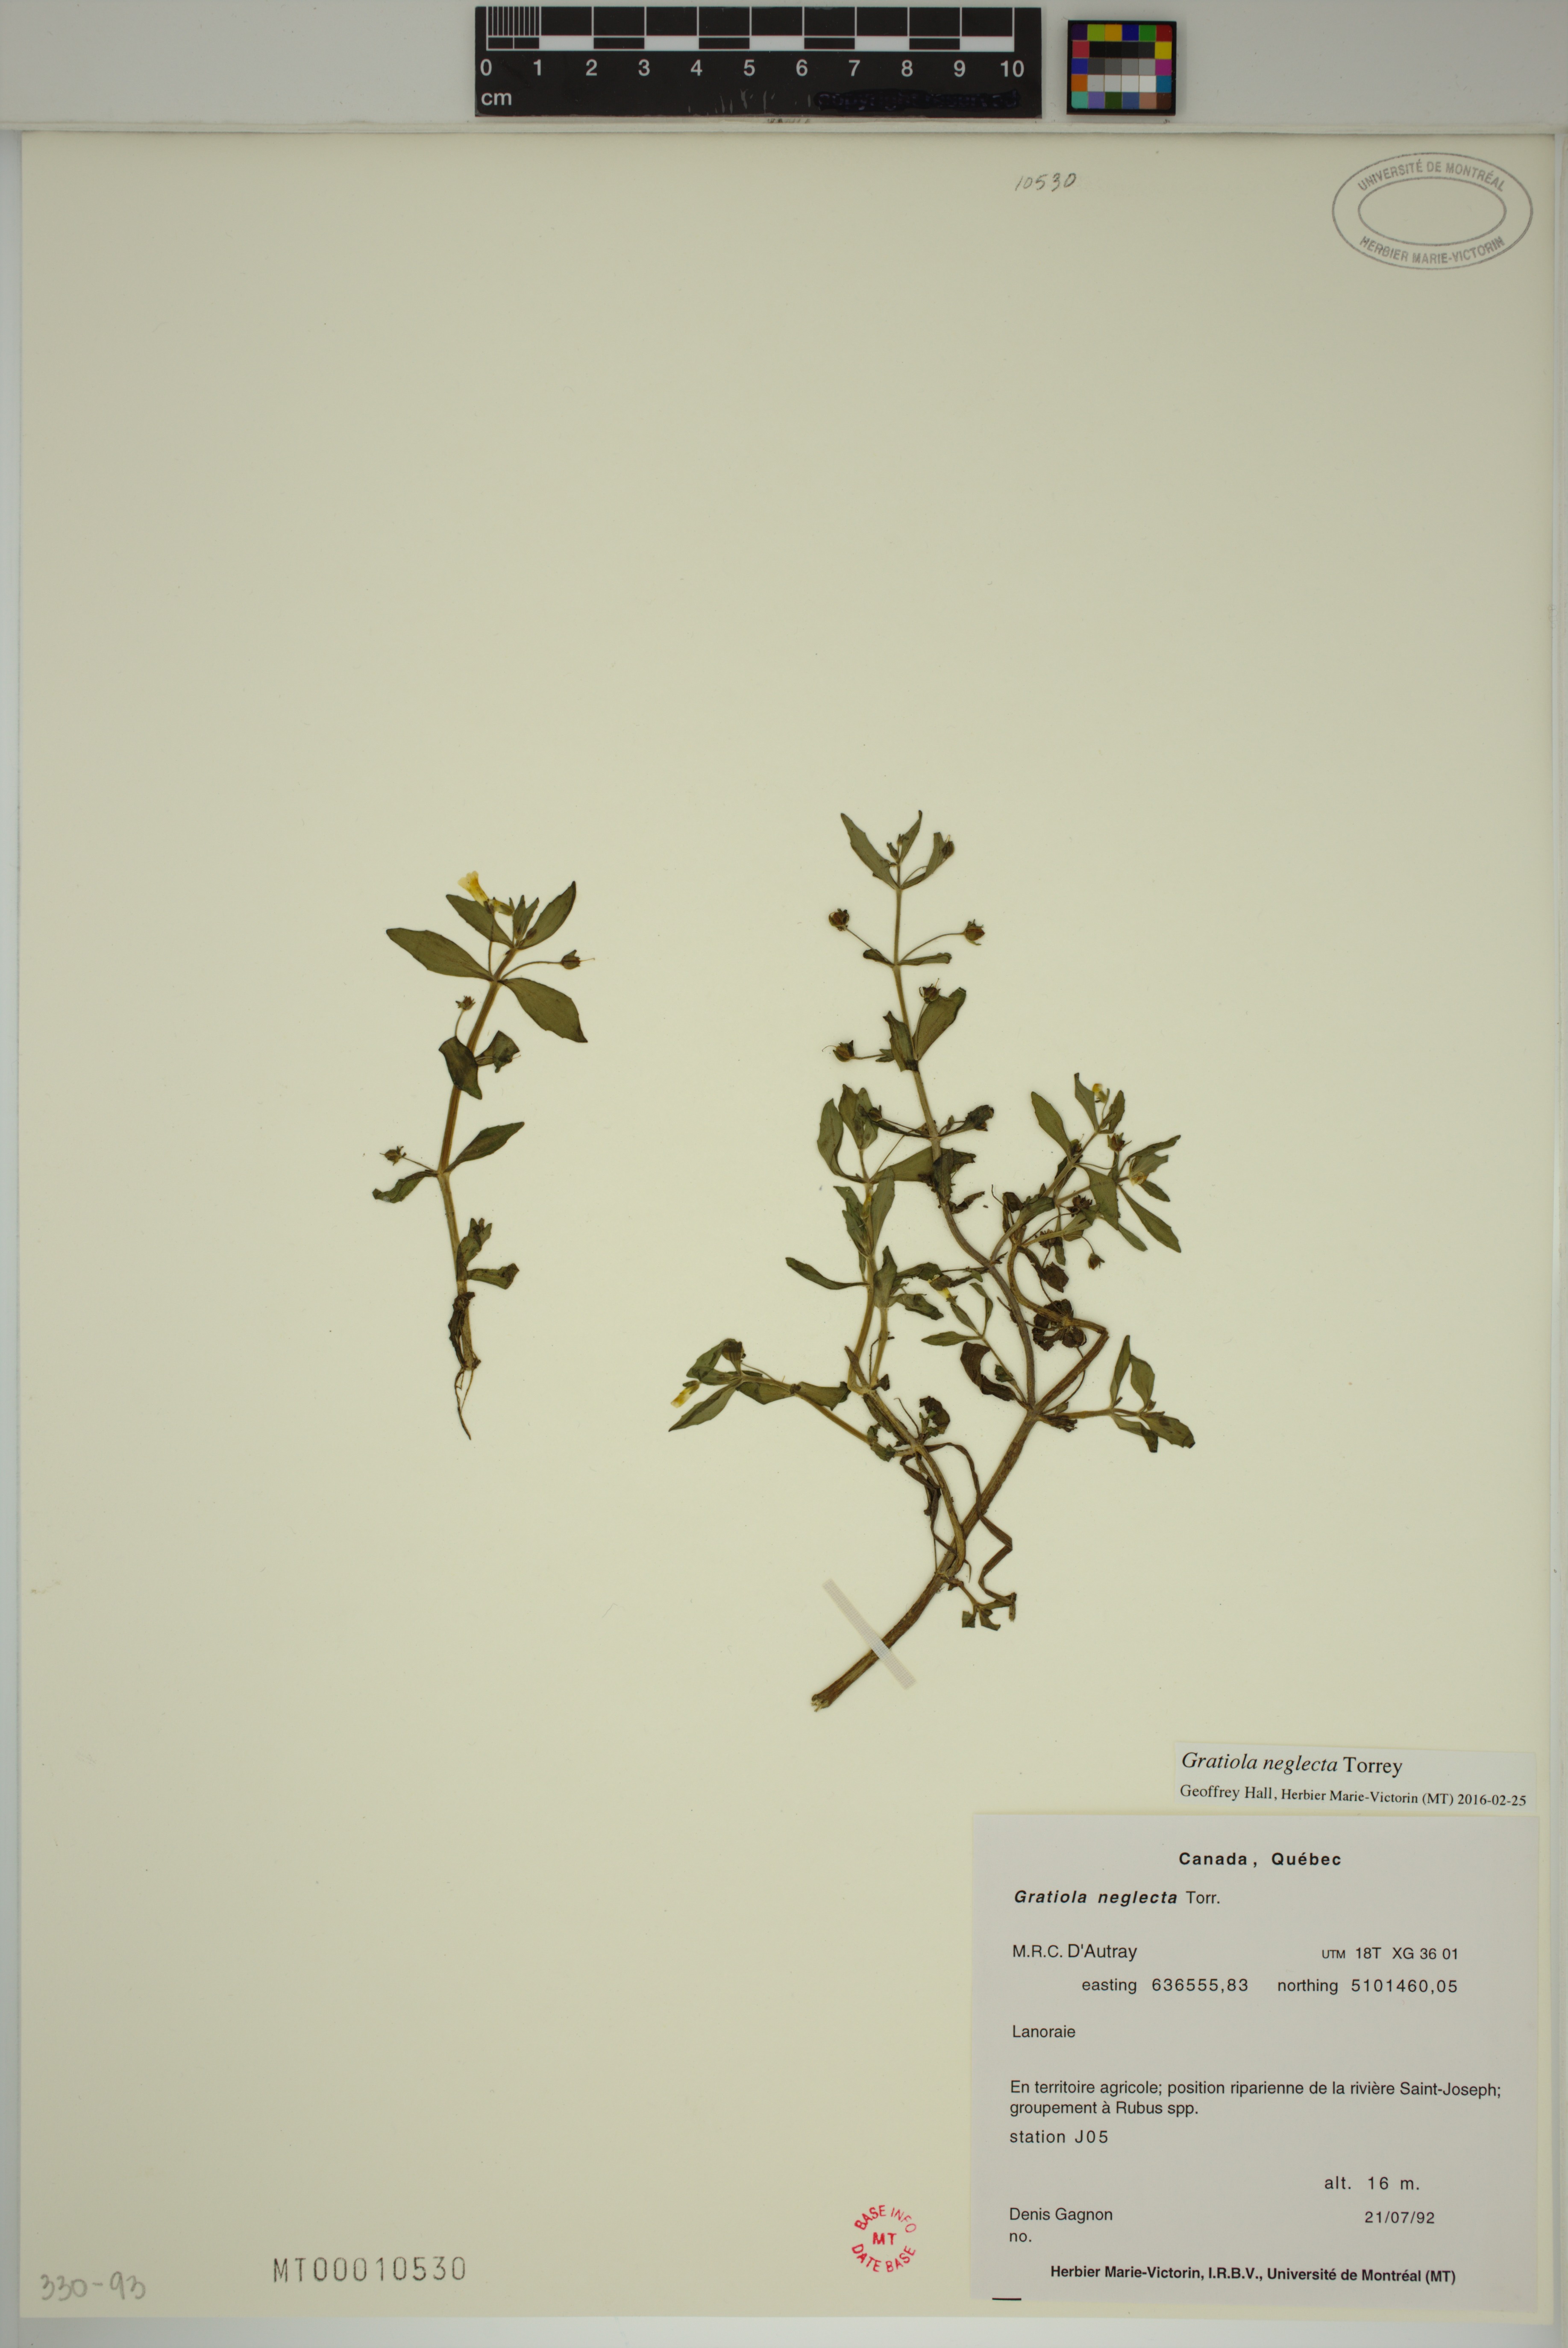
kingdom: Plantae
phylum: Tracheophyta
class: Magnoliopsida
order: Lamiales
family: Plantaginaceae
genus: Gratiola
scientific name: Gratiola neglecta
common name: American hedge-hyssop
